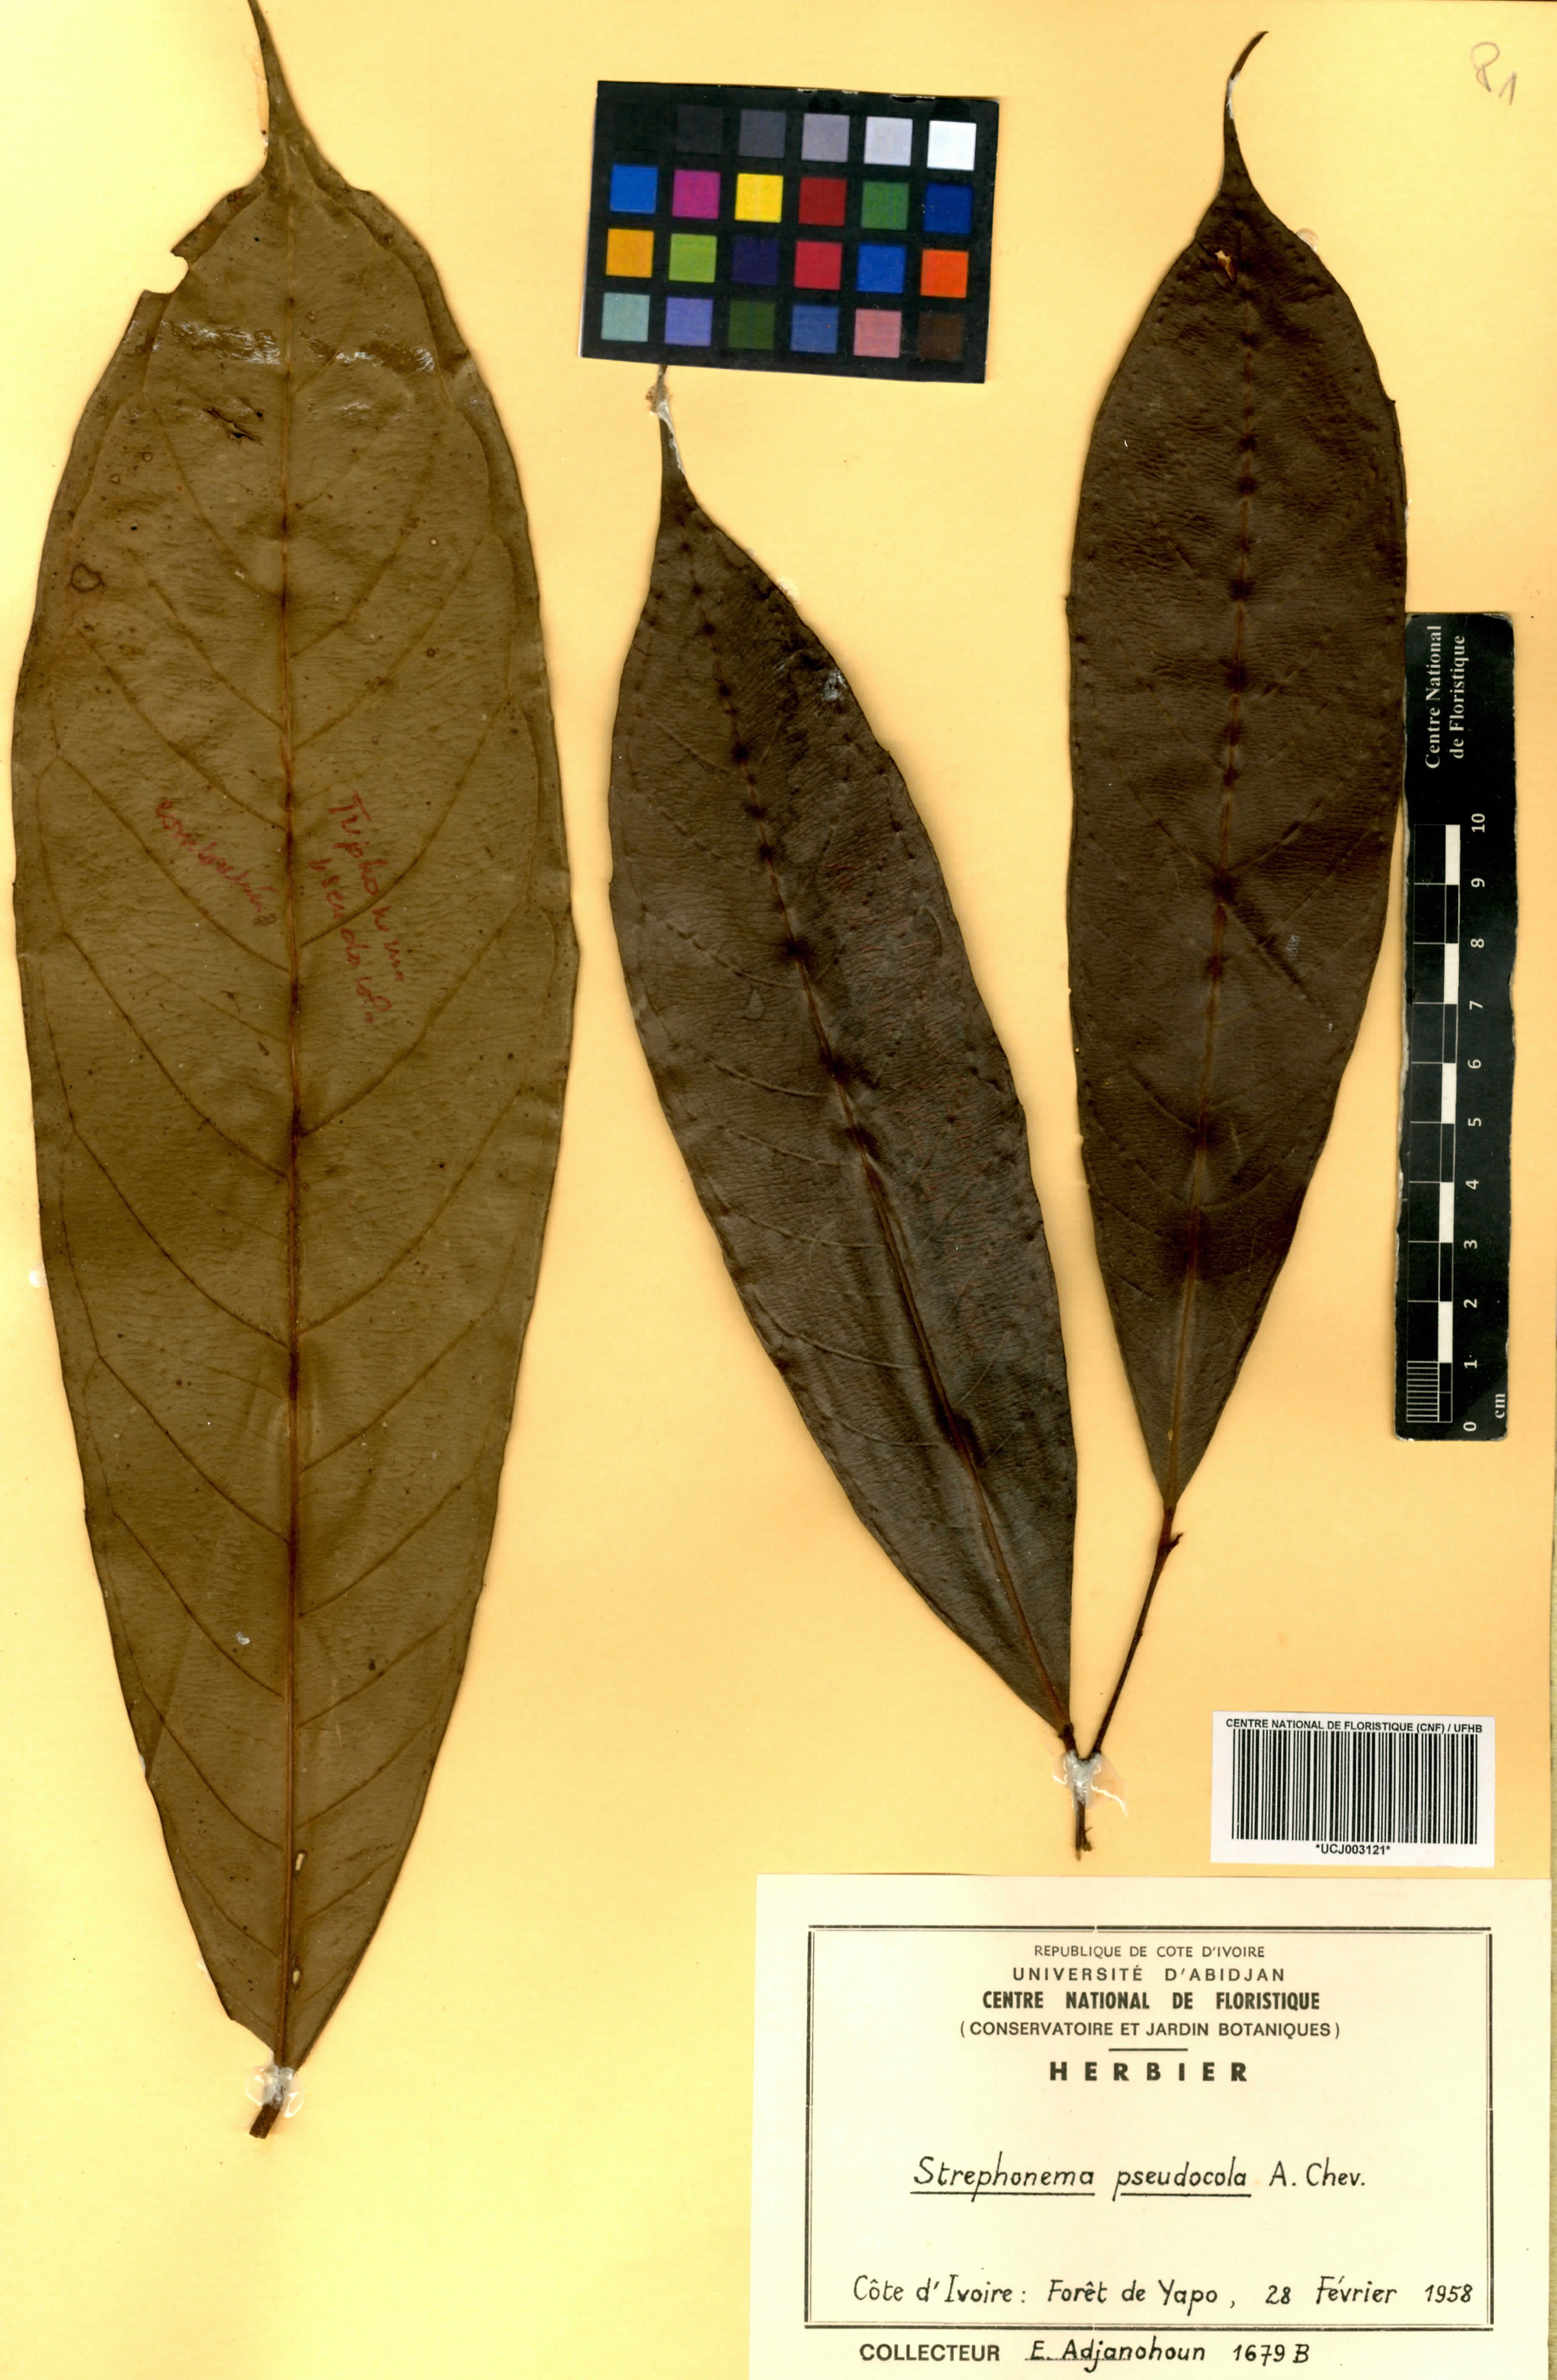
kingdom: Plantae
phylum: Tracheophyta
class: Magnoliopsida
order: Myrtales
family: Combretaceae
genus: Strephonema
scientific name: Strephonema pseudocola
